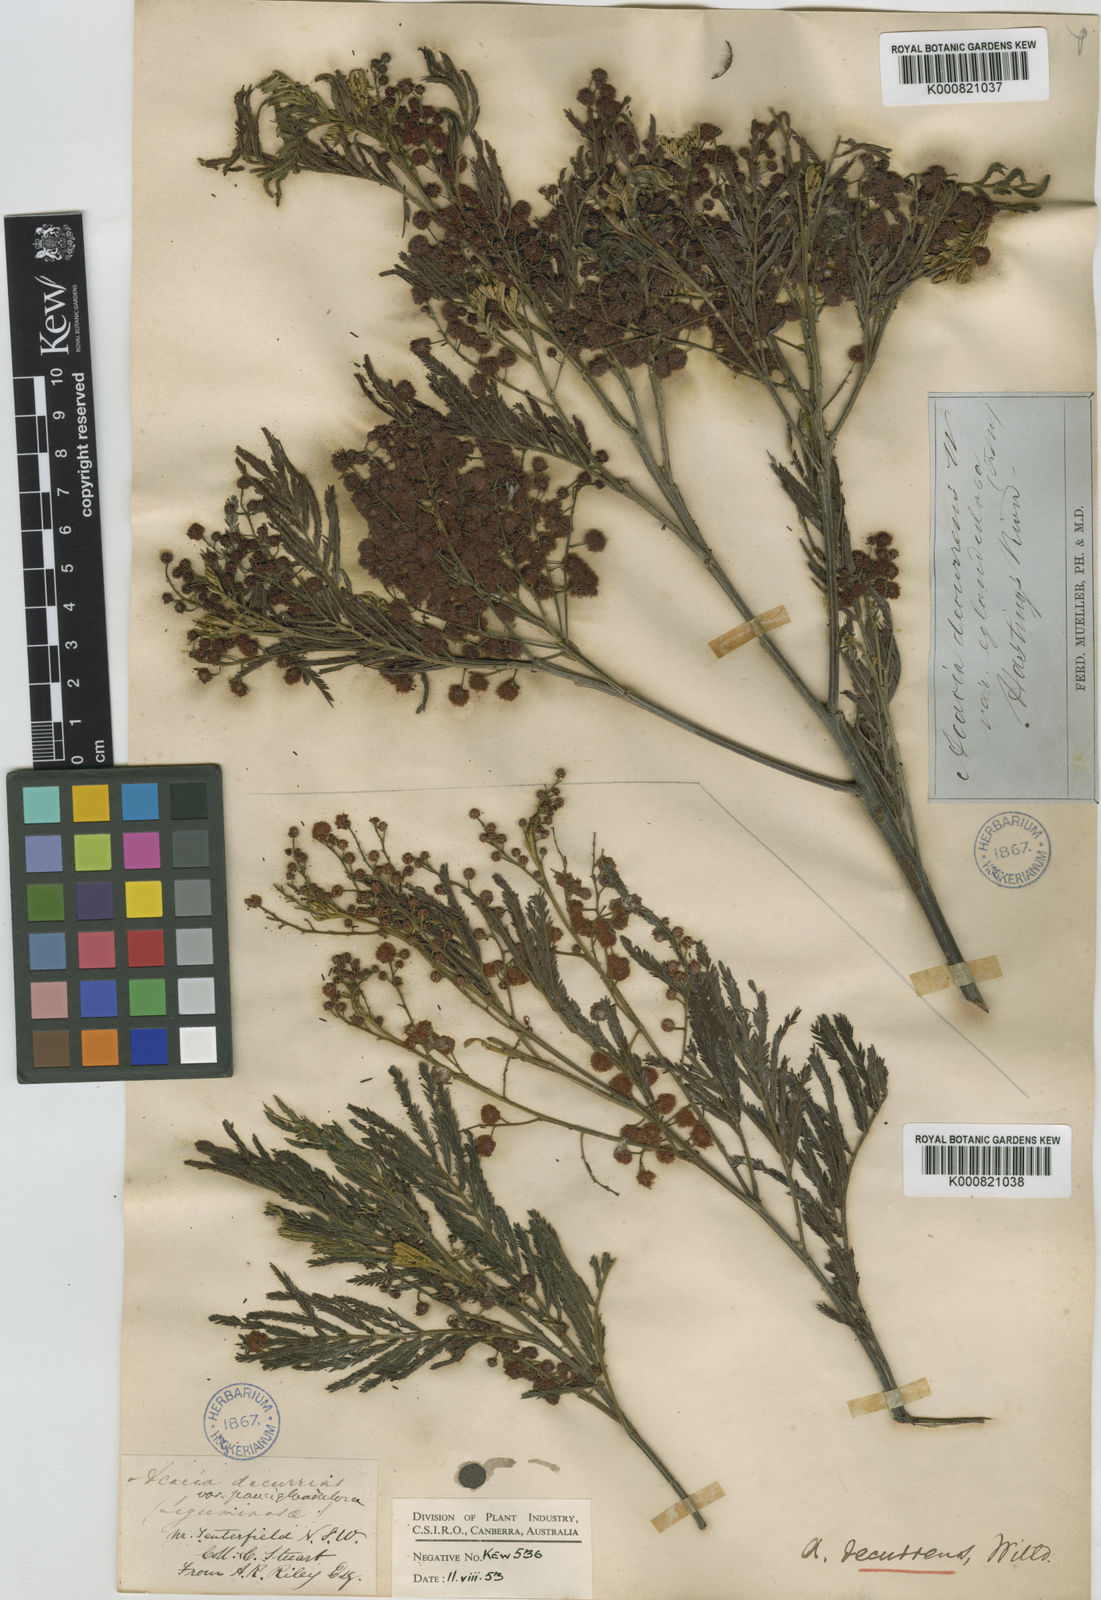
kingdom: Plantae
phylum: Tracheophyta
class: Magnoliopsida
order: Fabales
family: Fabaceae
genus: Acacia
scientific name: Acacia irrorata
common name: Green wattle
